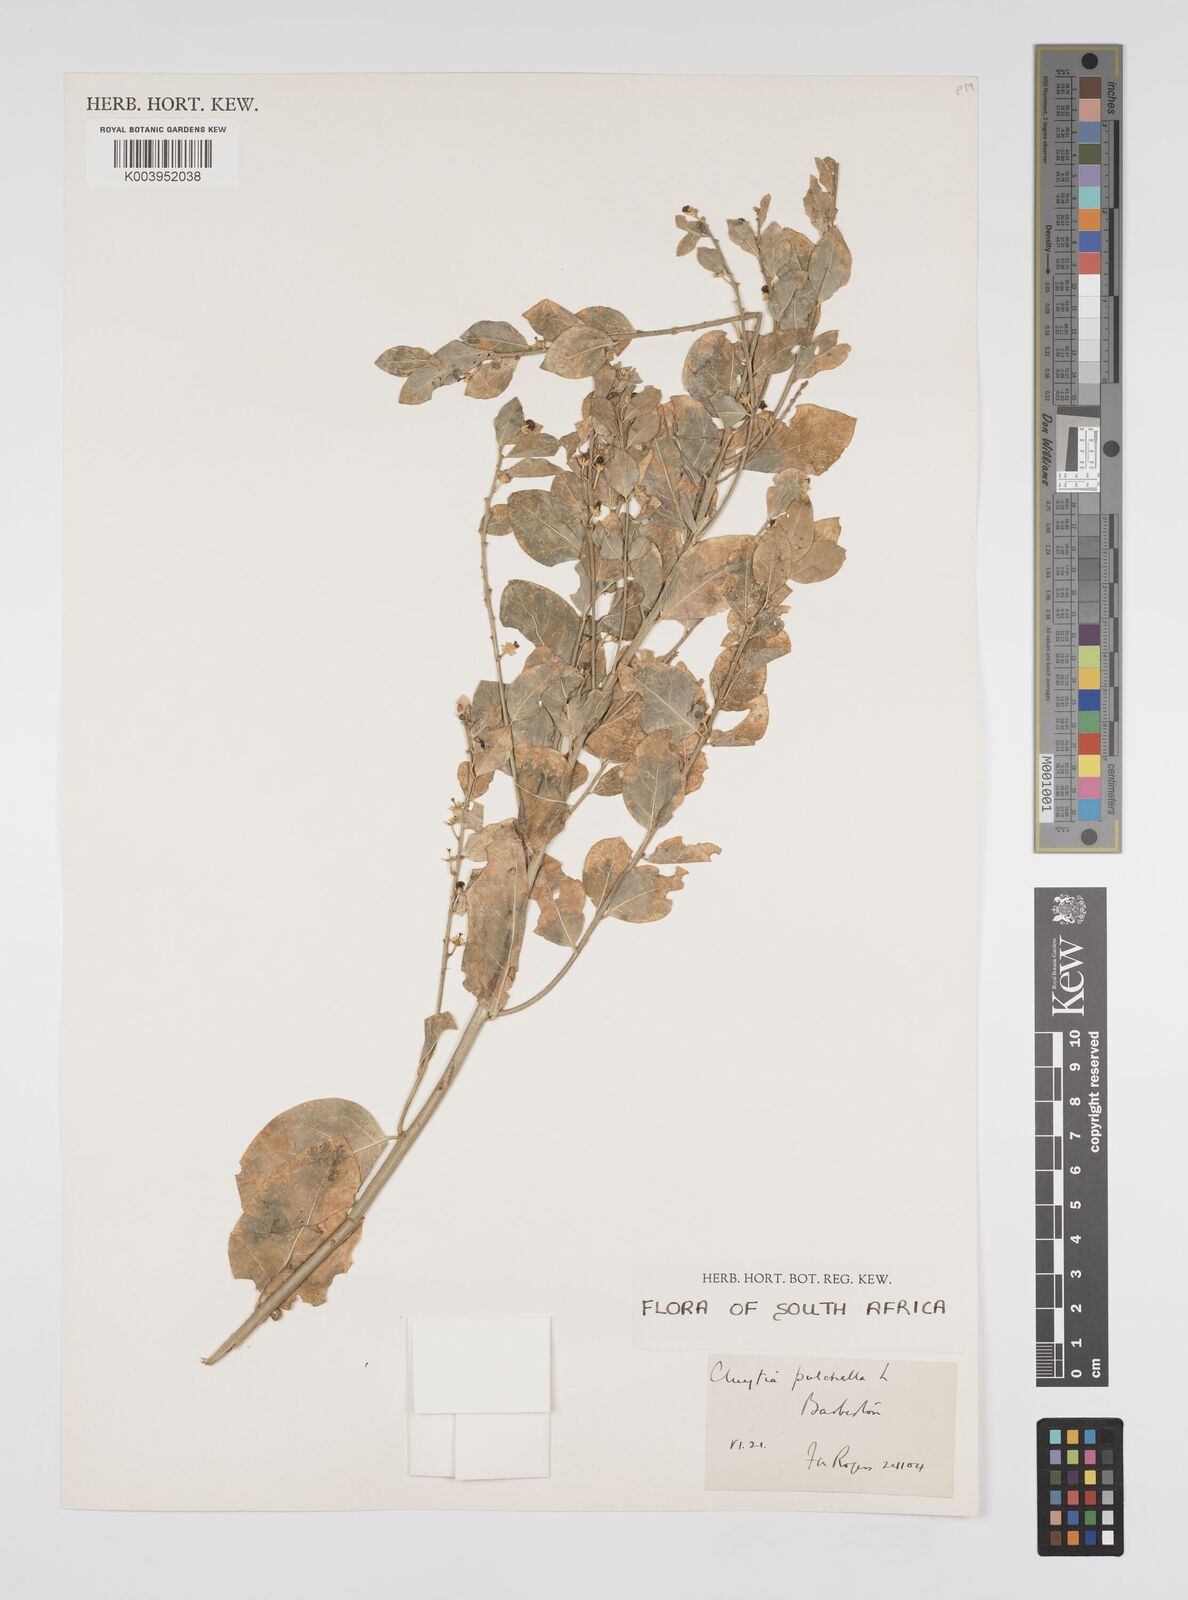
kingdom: Plantae
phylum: Tracheophyta
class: Magnoliopsida
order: Malpighiales
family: Peraceae
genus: Clutia
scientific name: Clutia pulchella
